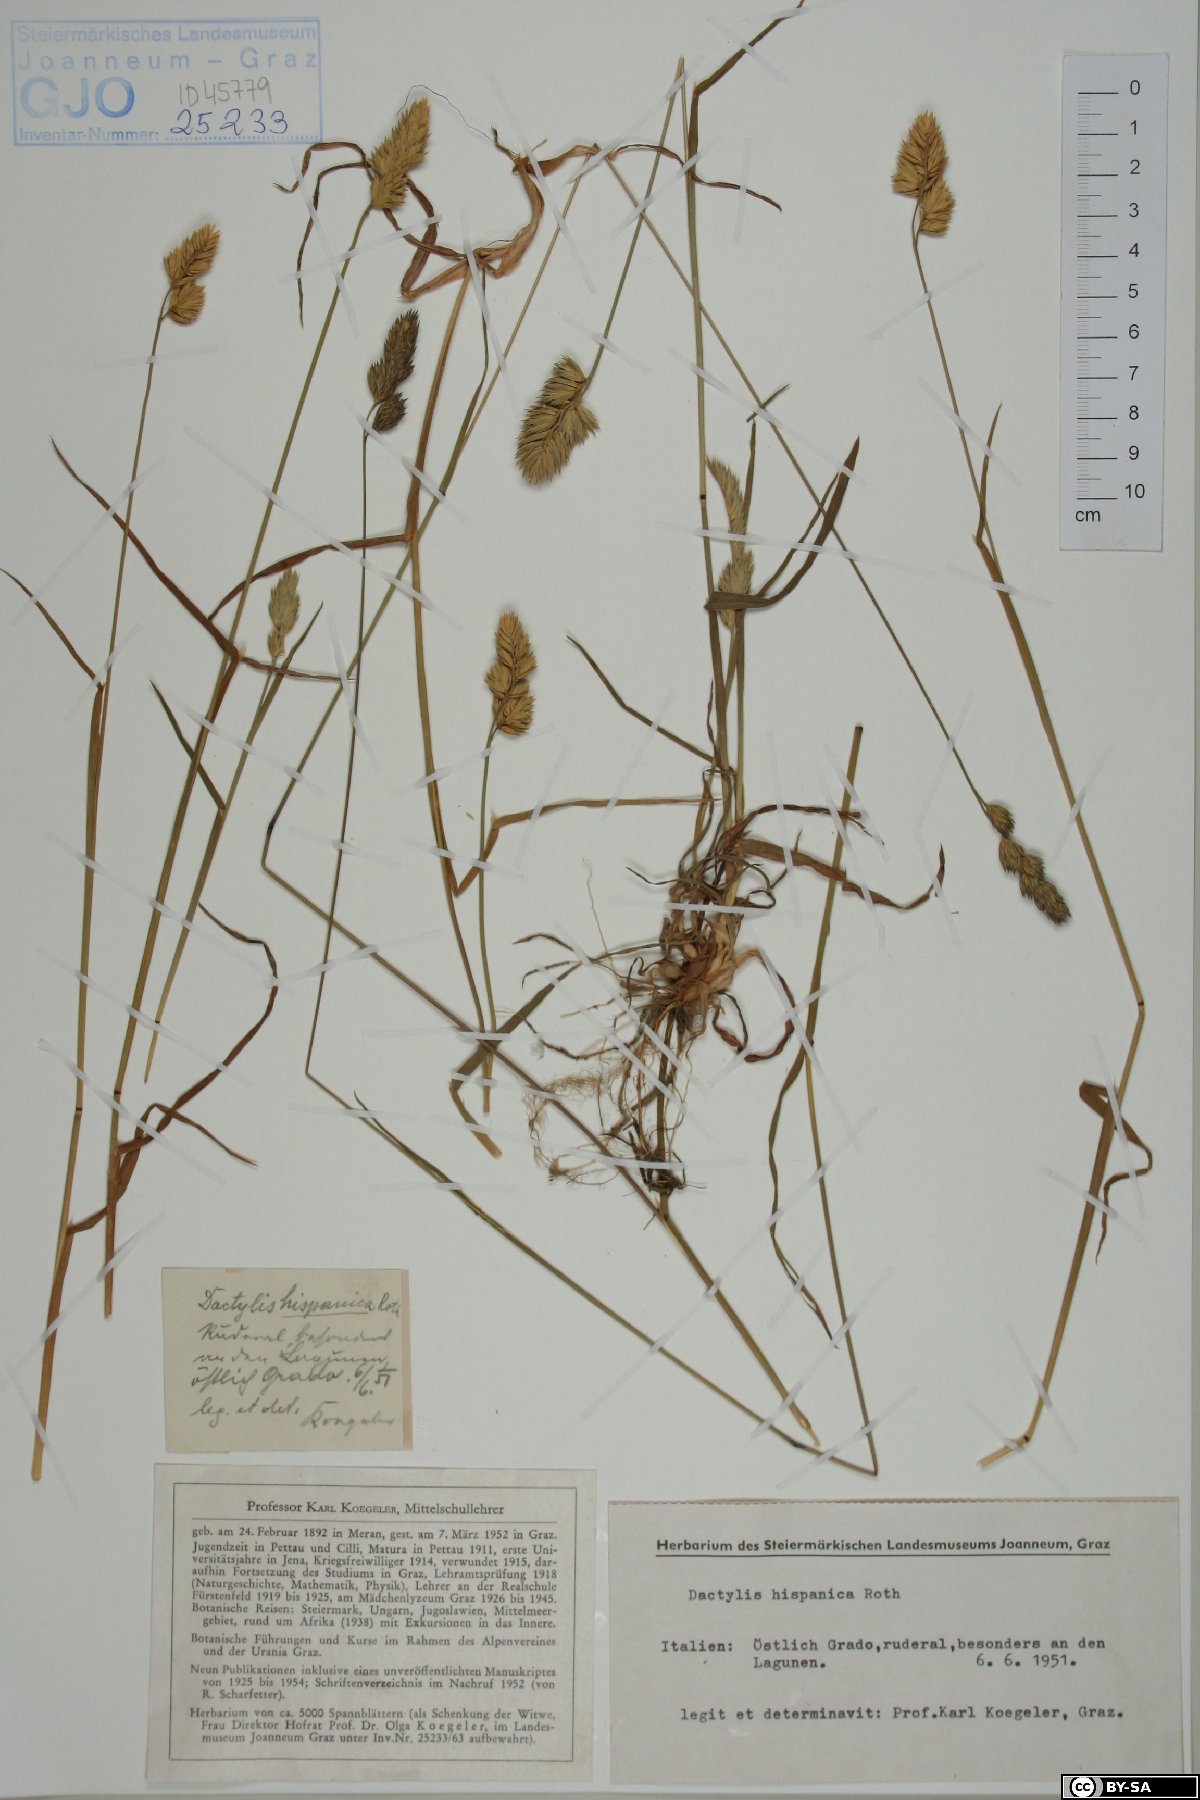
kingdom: Plantae
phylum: Tracheophyta
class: Liliopsida
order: Poales
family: Poaceae
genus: Dactylis
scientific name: Dactylis glomerata
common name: Orchardgrass
